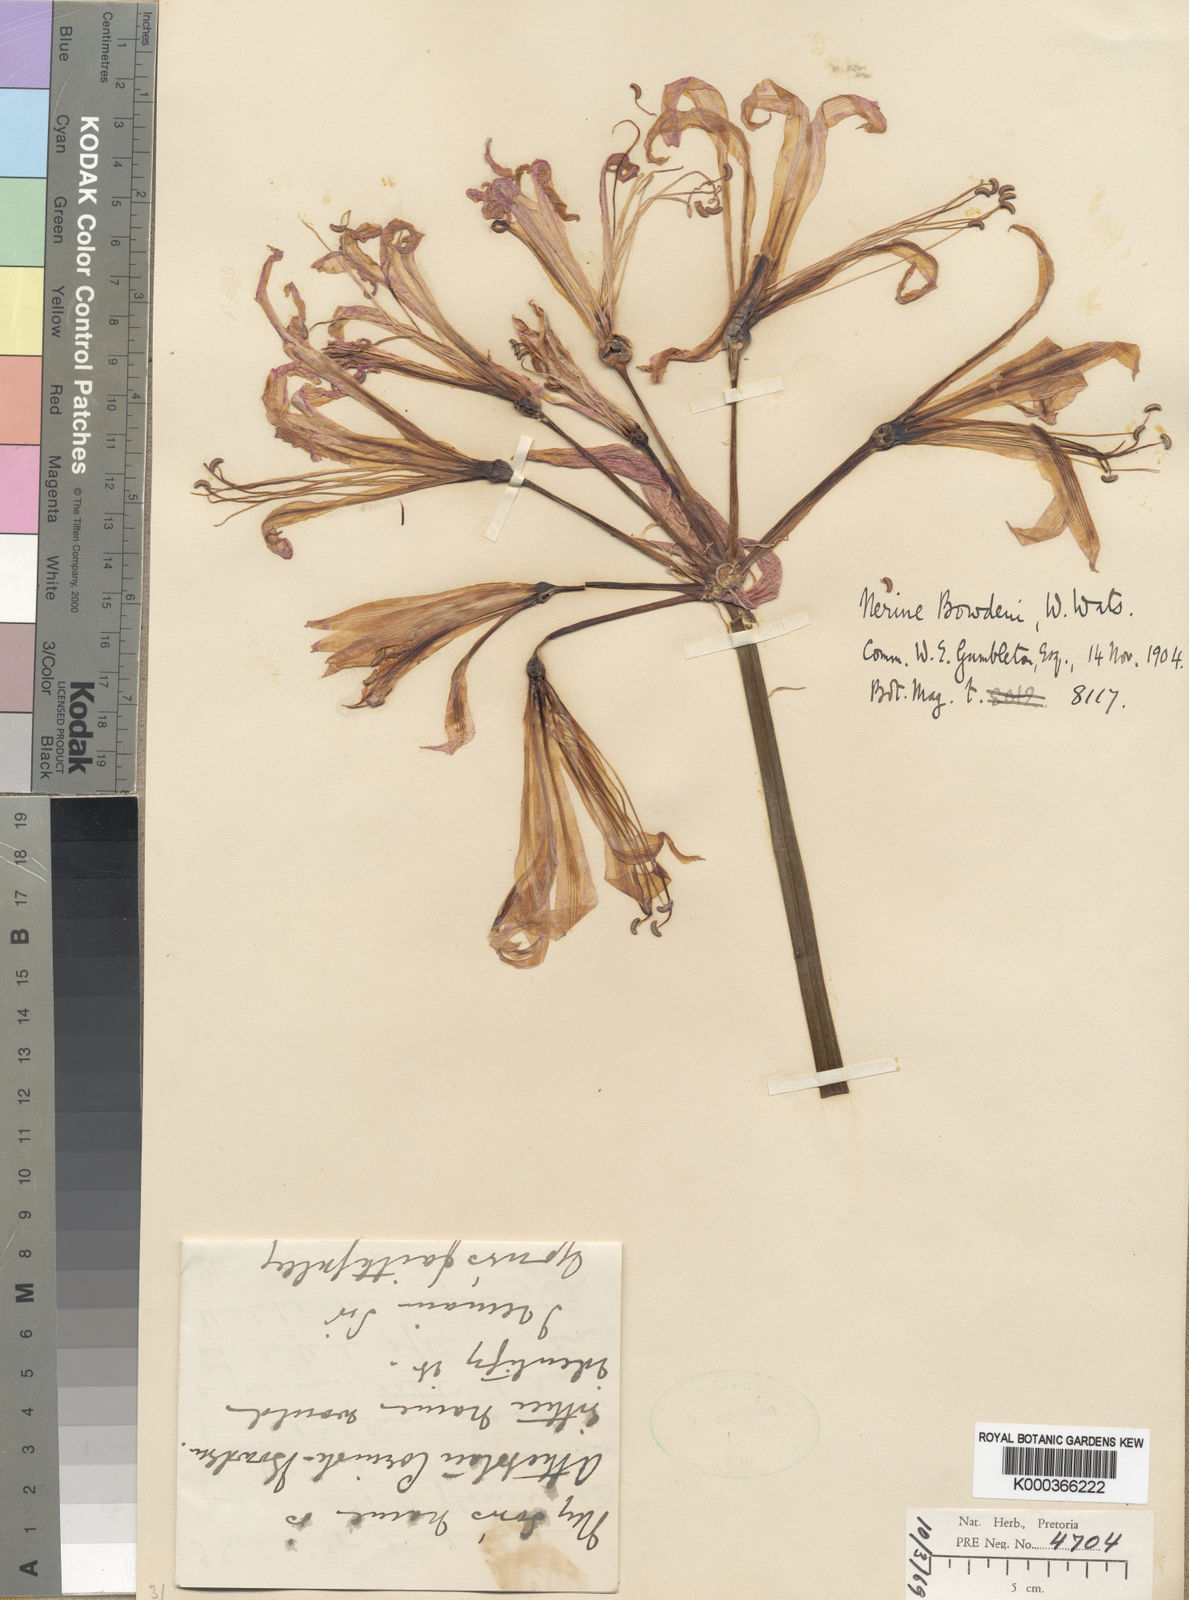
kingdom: Plantae
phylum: Tracheophyta
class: Liliopsida
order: Asparagales
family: Amaryllidaceae
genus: Nerine
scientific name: Nerine bowdenii
